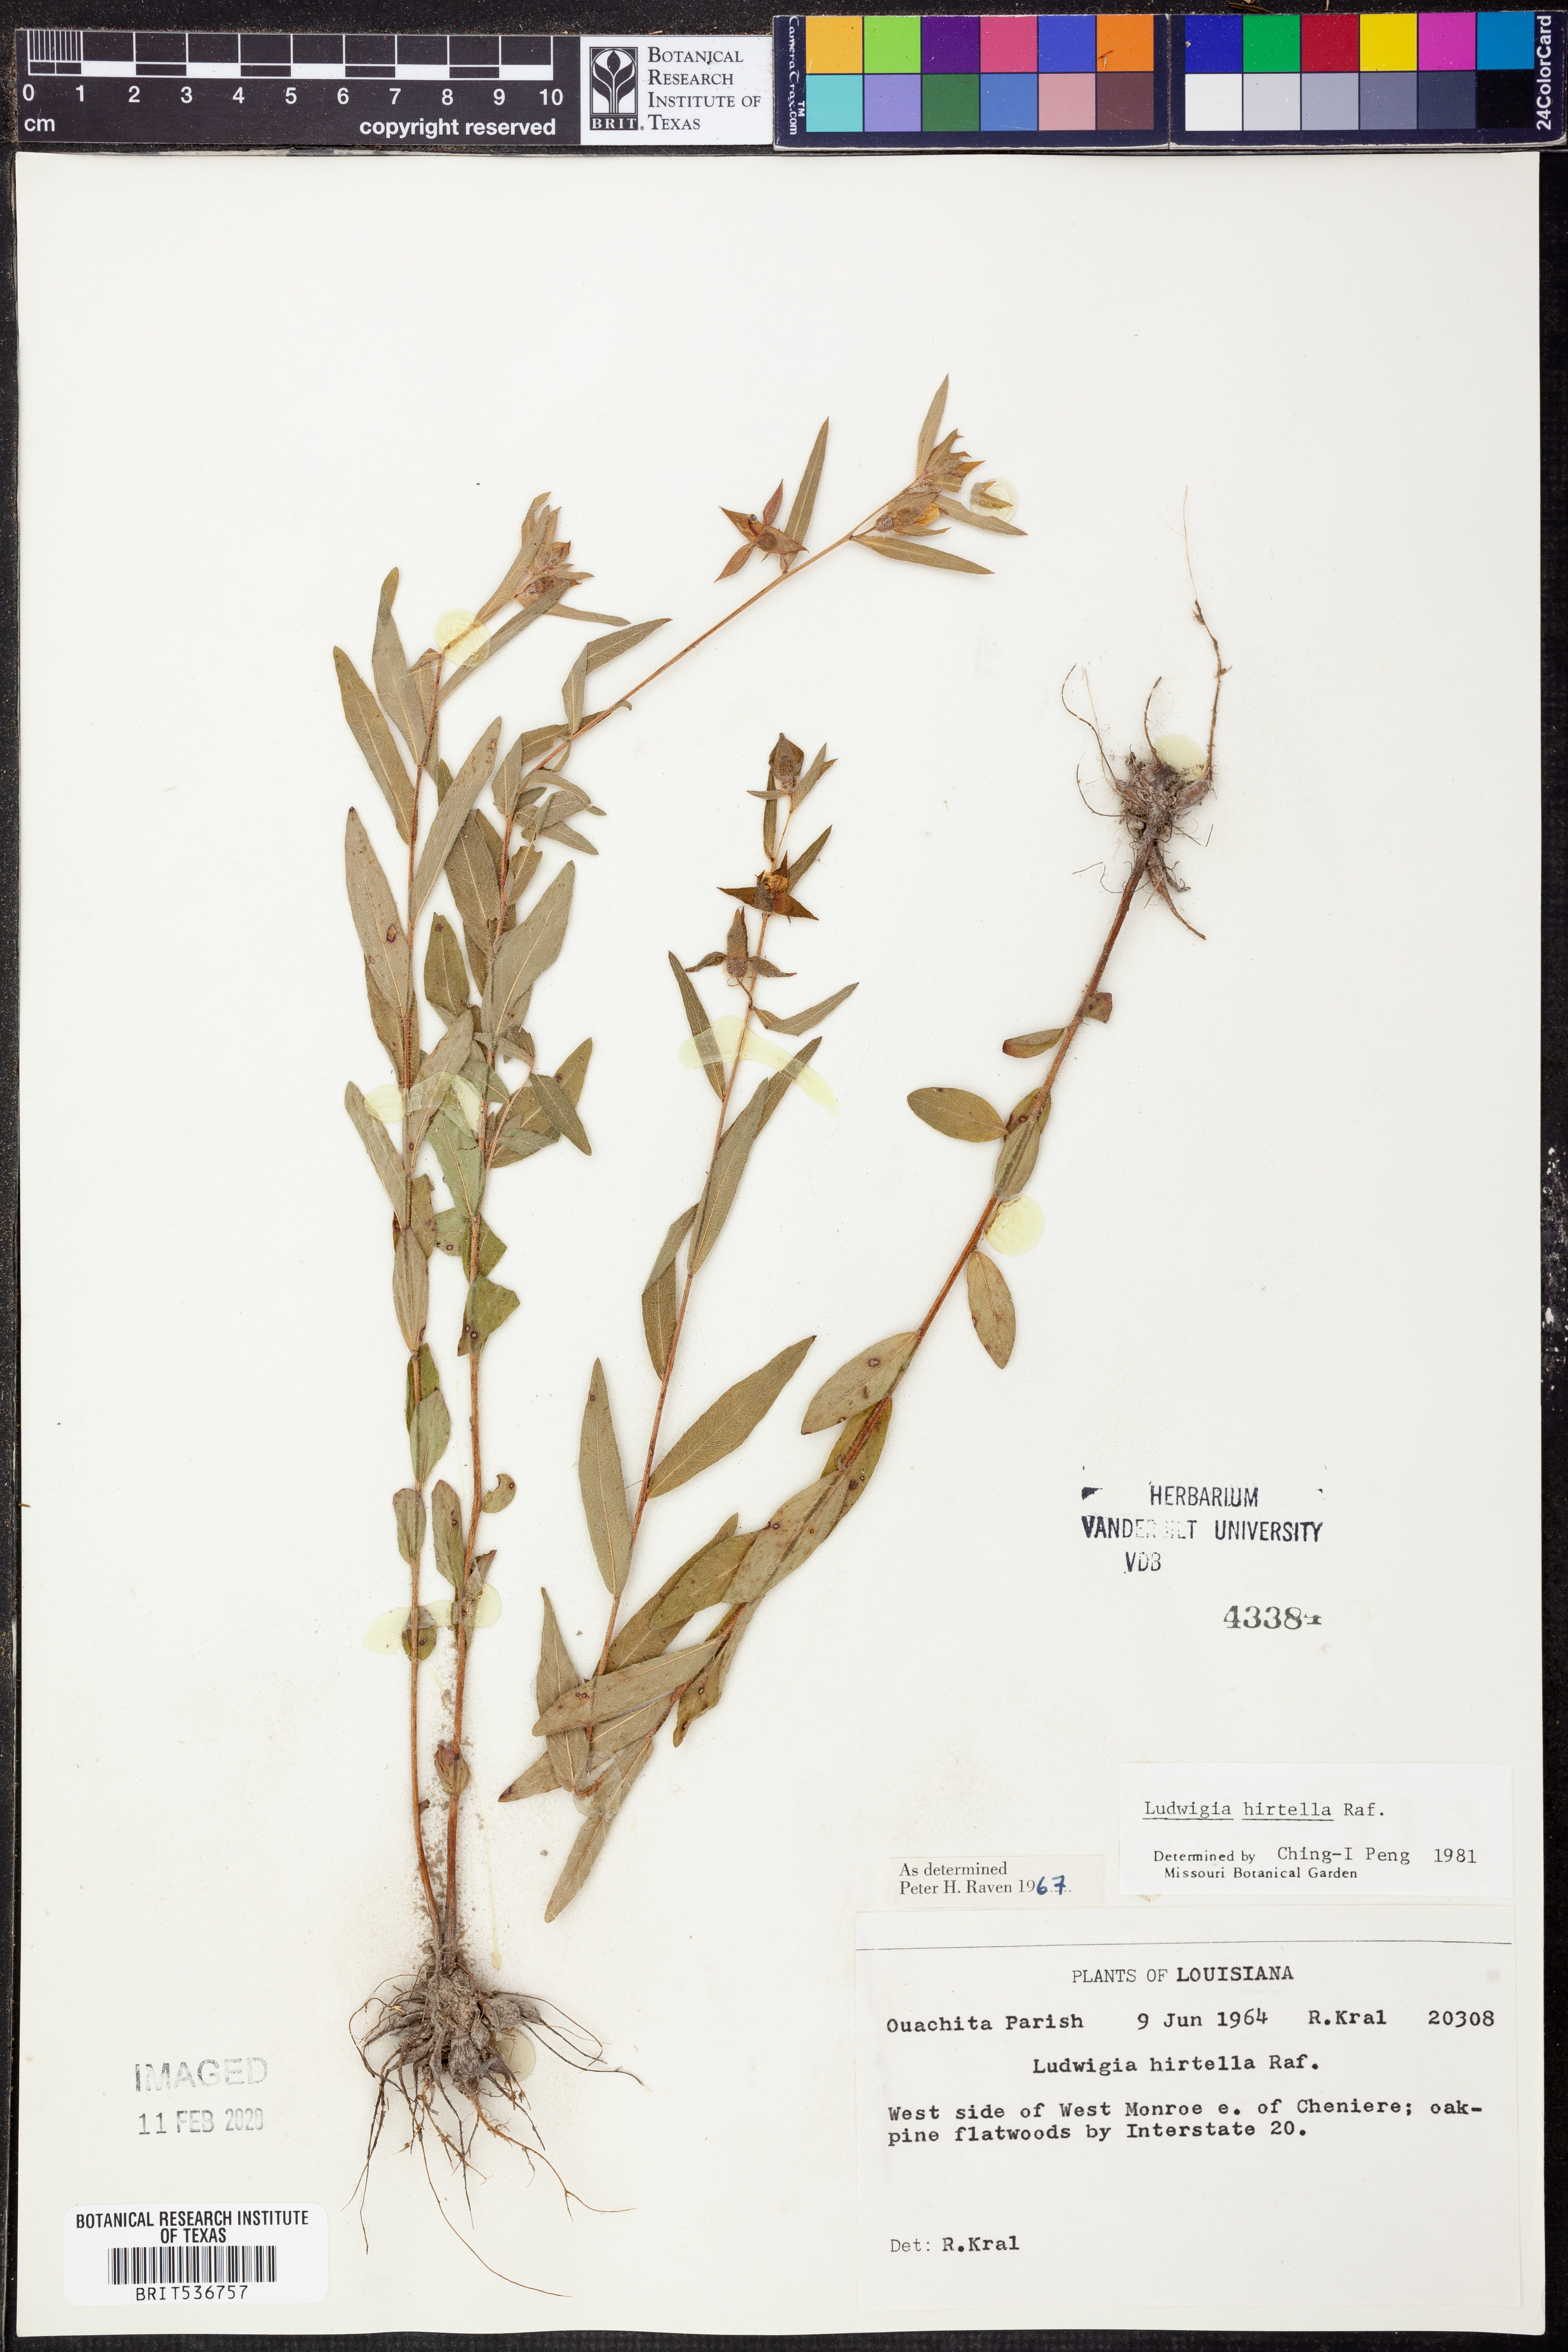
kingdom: Plantae
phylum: Tracheophyta
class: Magnoliopsida
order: Myrtales
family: Onagraceae
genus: Ludwigia
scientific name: Ludwigia hirtella
